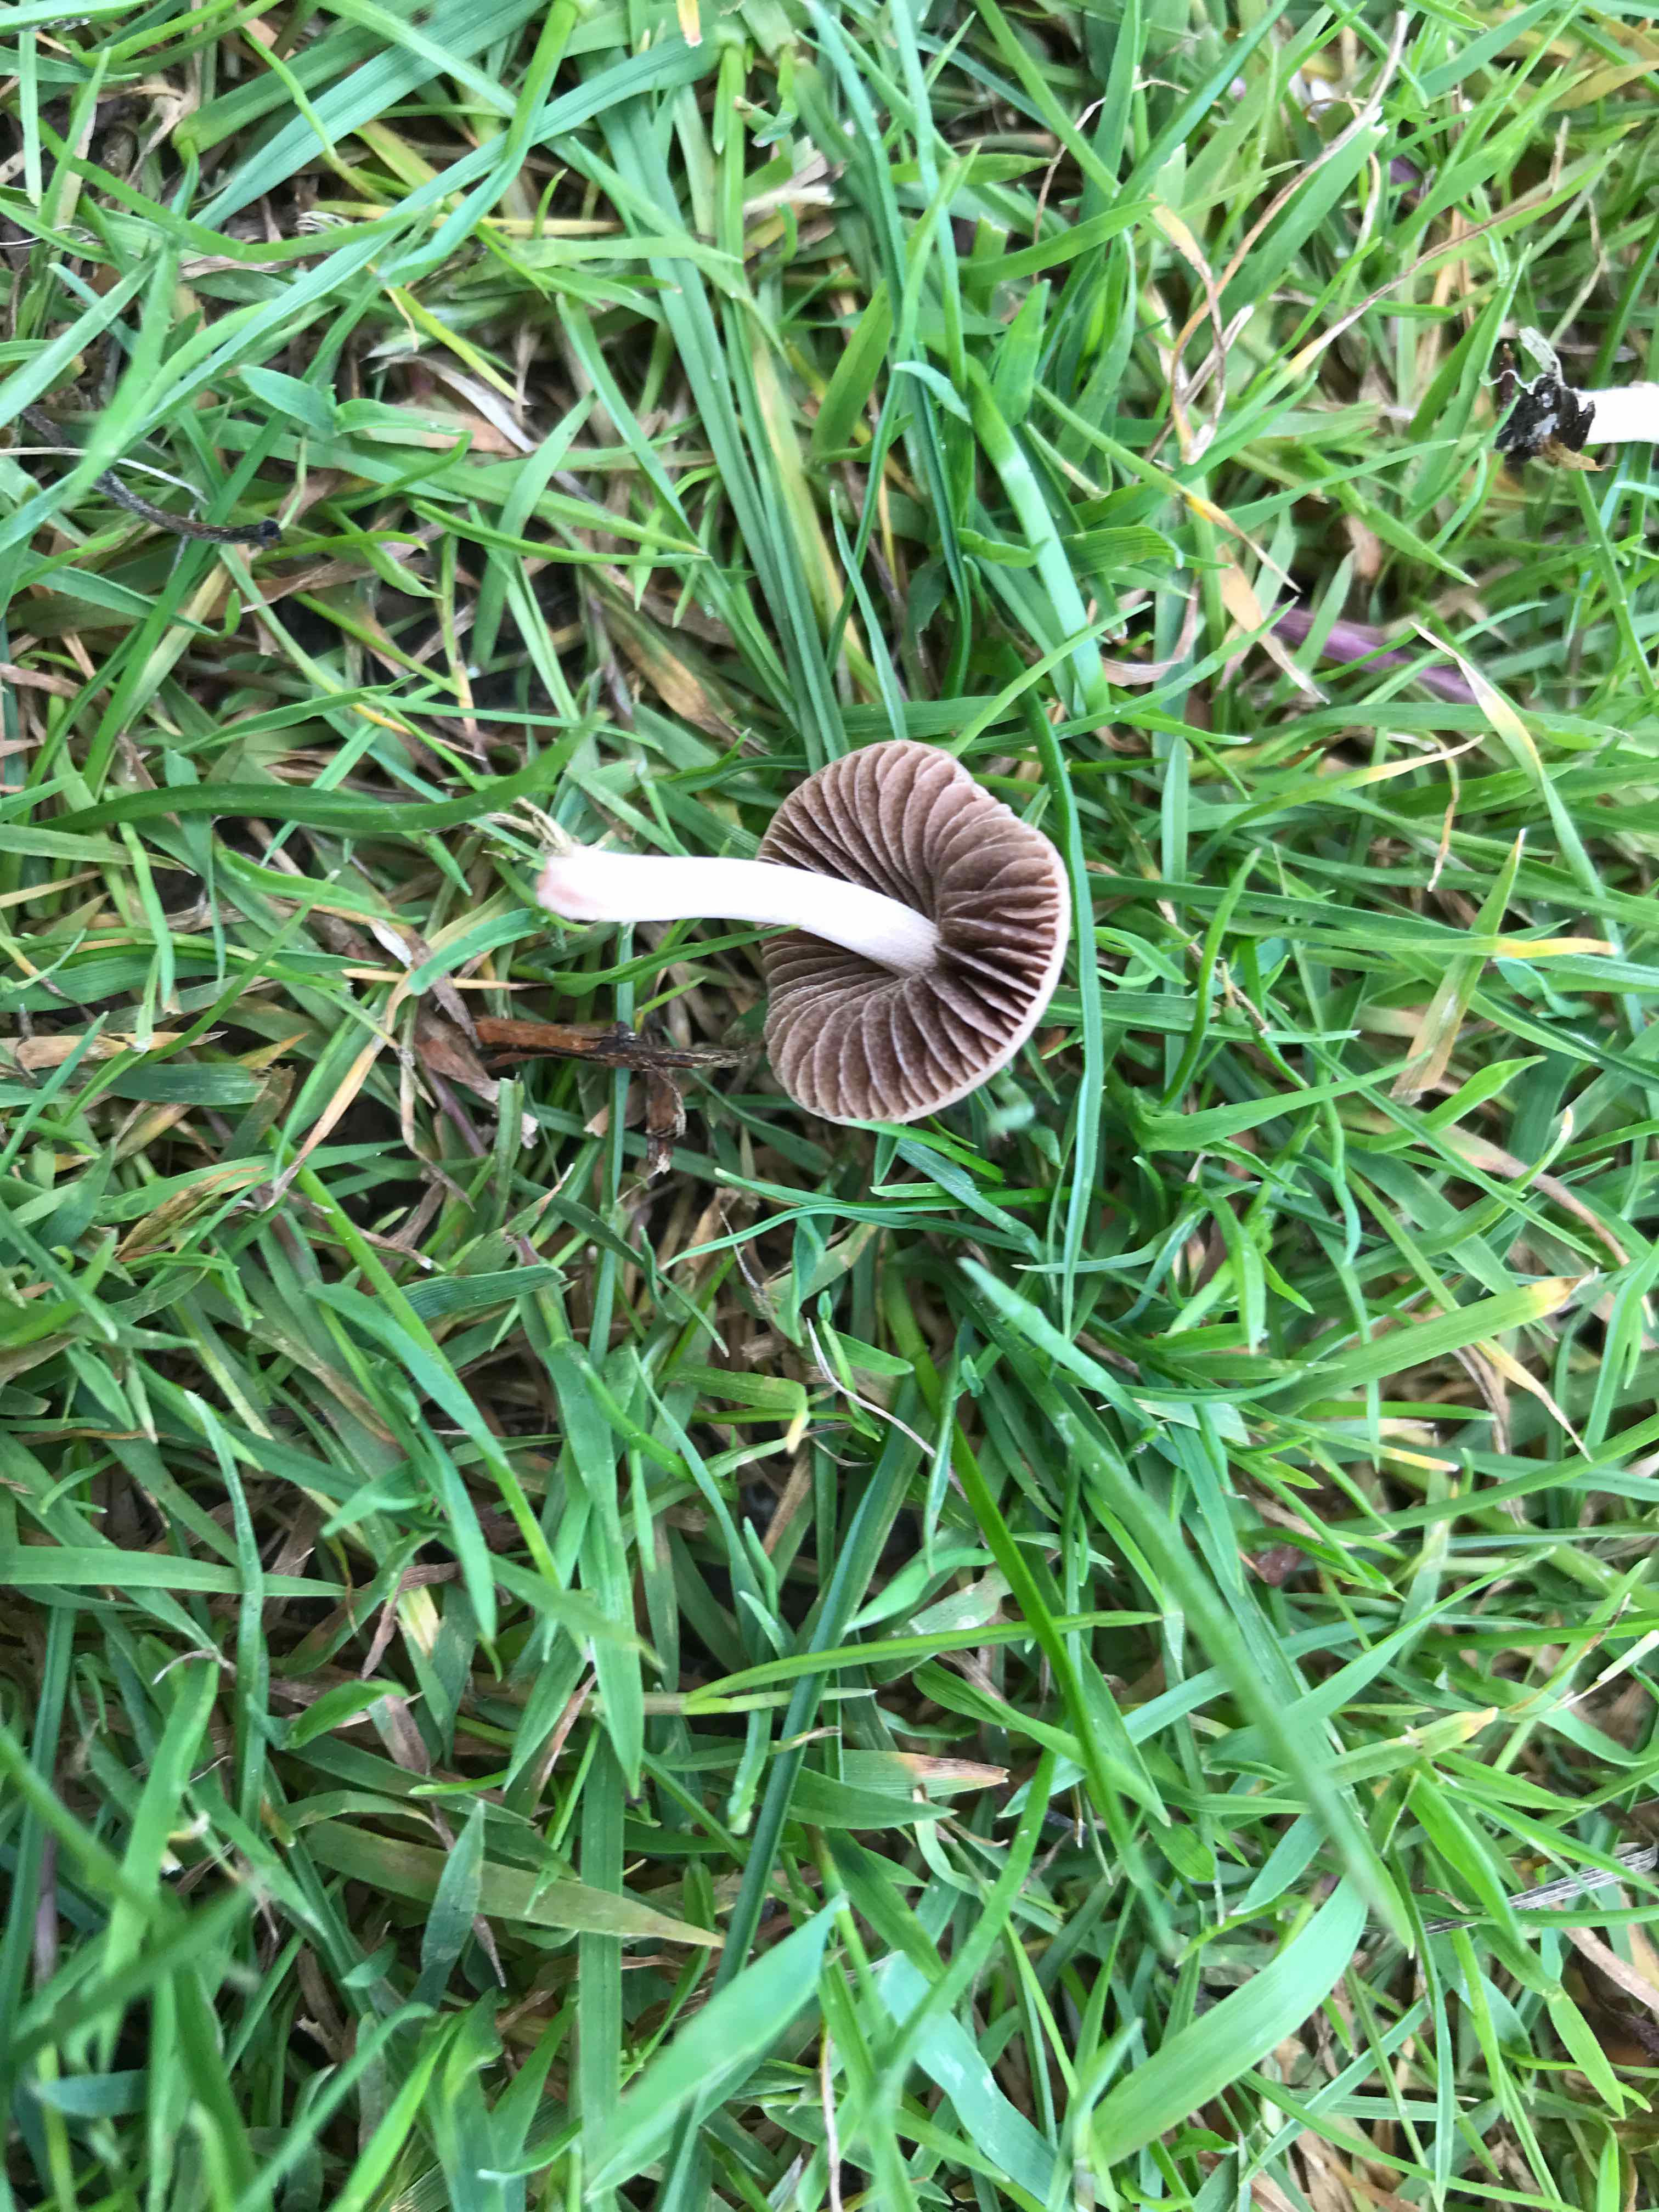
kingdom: Fungi
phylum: Basidiomycota
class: Agaricomycetes
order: Agaricales
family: Bolbitiaceae
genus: Panaeolina
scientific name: Panaeolina foenisecii
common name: høslætsvamp
